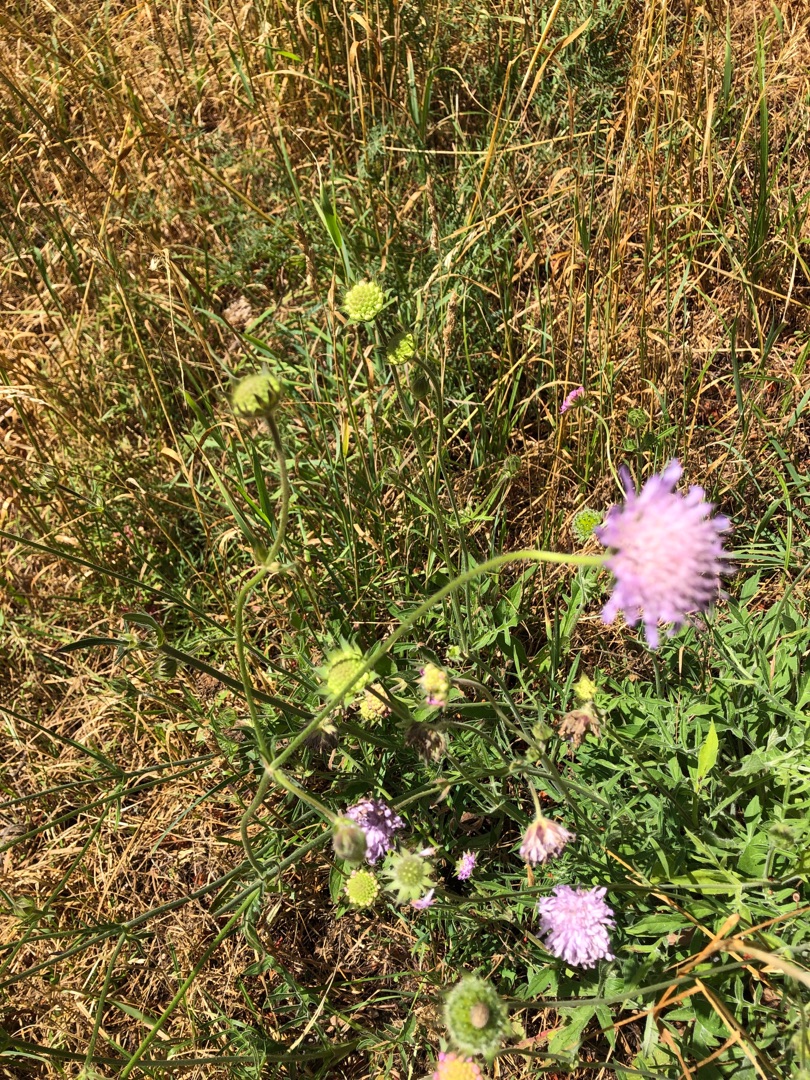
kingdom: Plantae
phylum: Tracheophyta
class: Magnoliopsida
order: Dipsacales
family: Caprifoliaceae
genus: Knautia
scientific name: Knautia arvensis
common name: Blåhat
